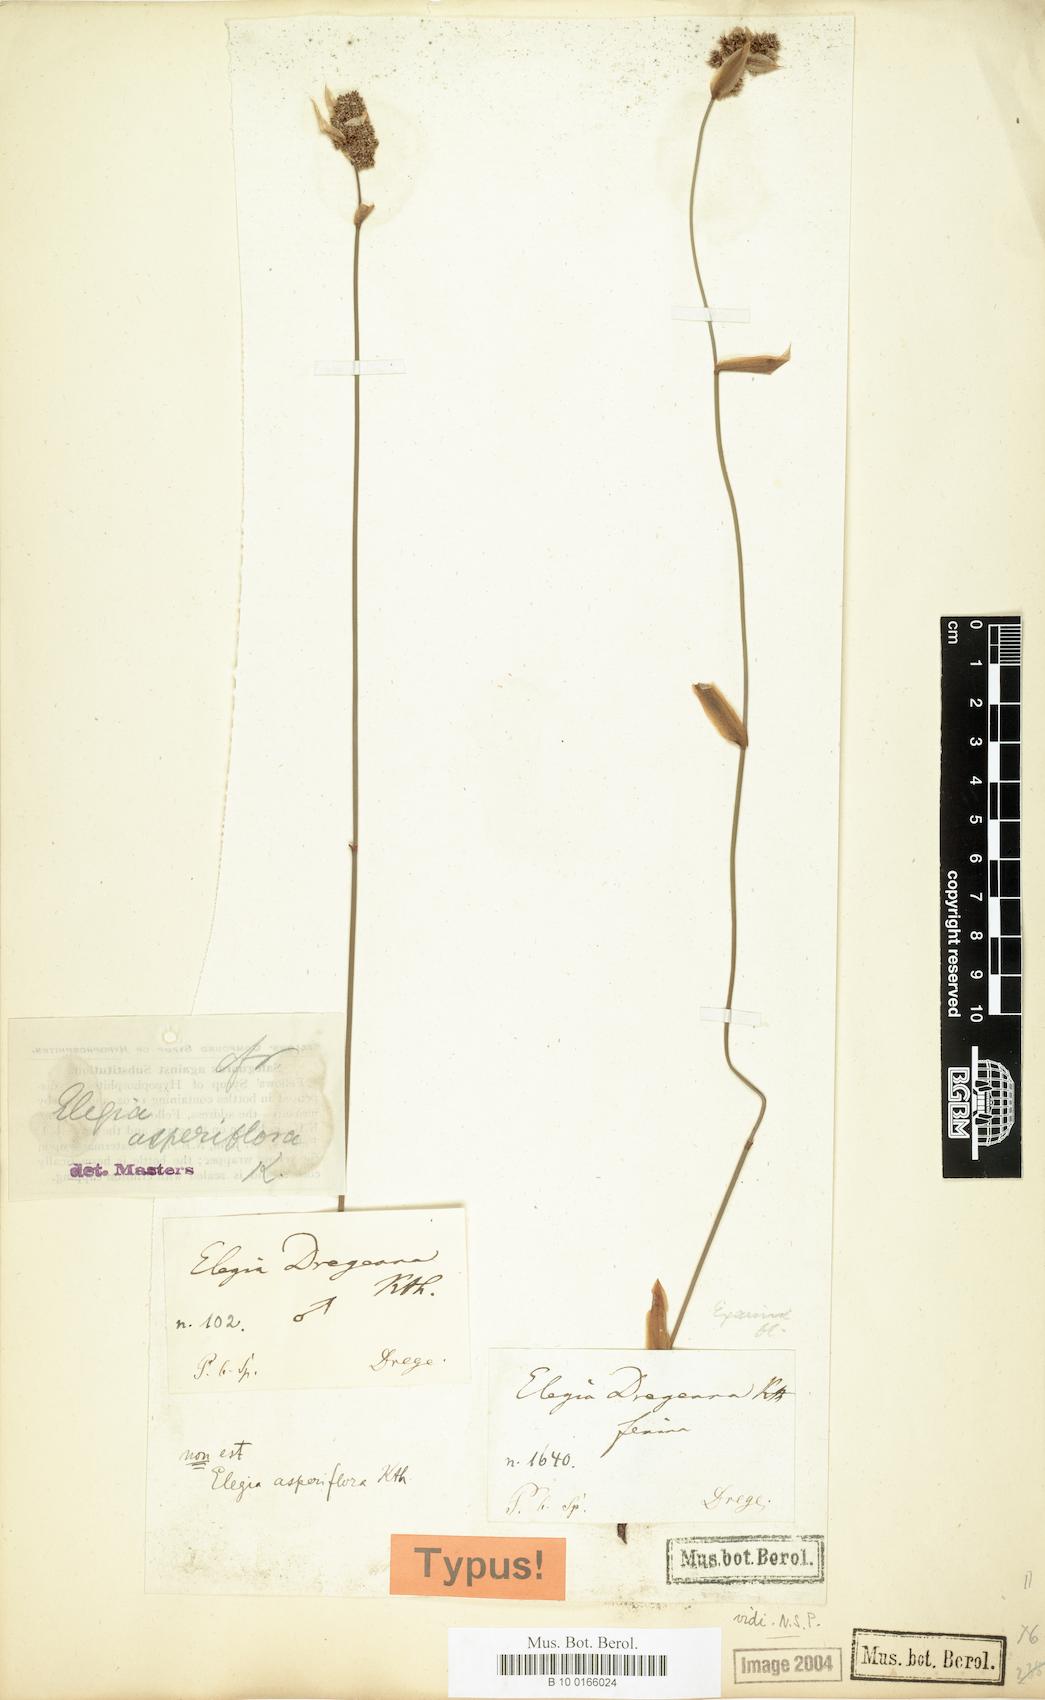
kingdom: Plantae
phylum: Tracheophyta
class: Liliopsida
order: Poales
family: Restionaceae
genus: Elegia
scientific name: Elegia asperiflora
